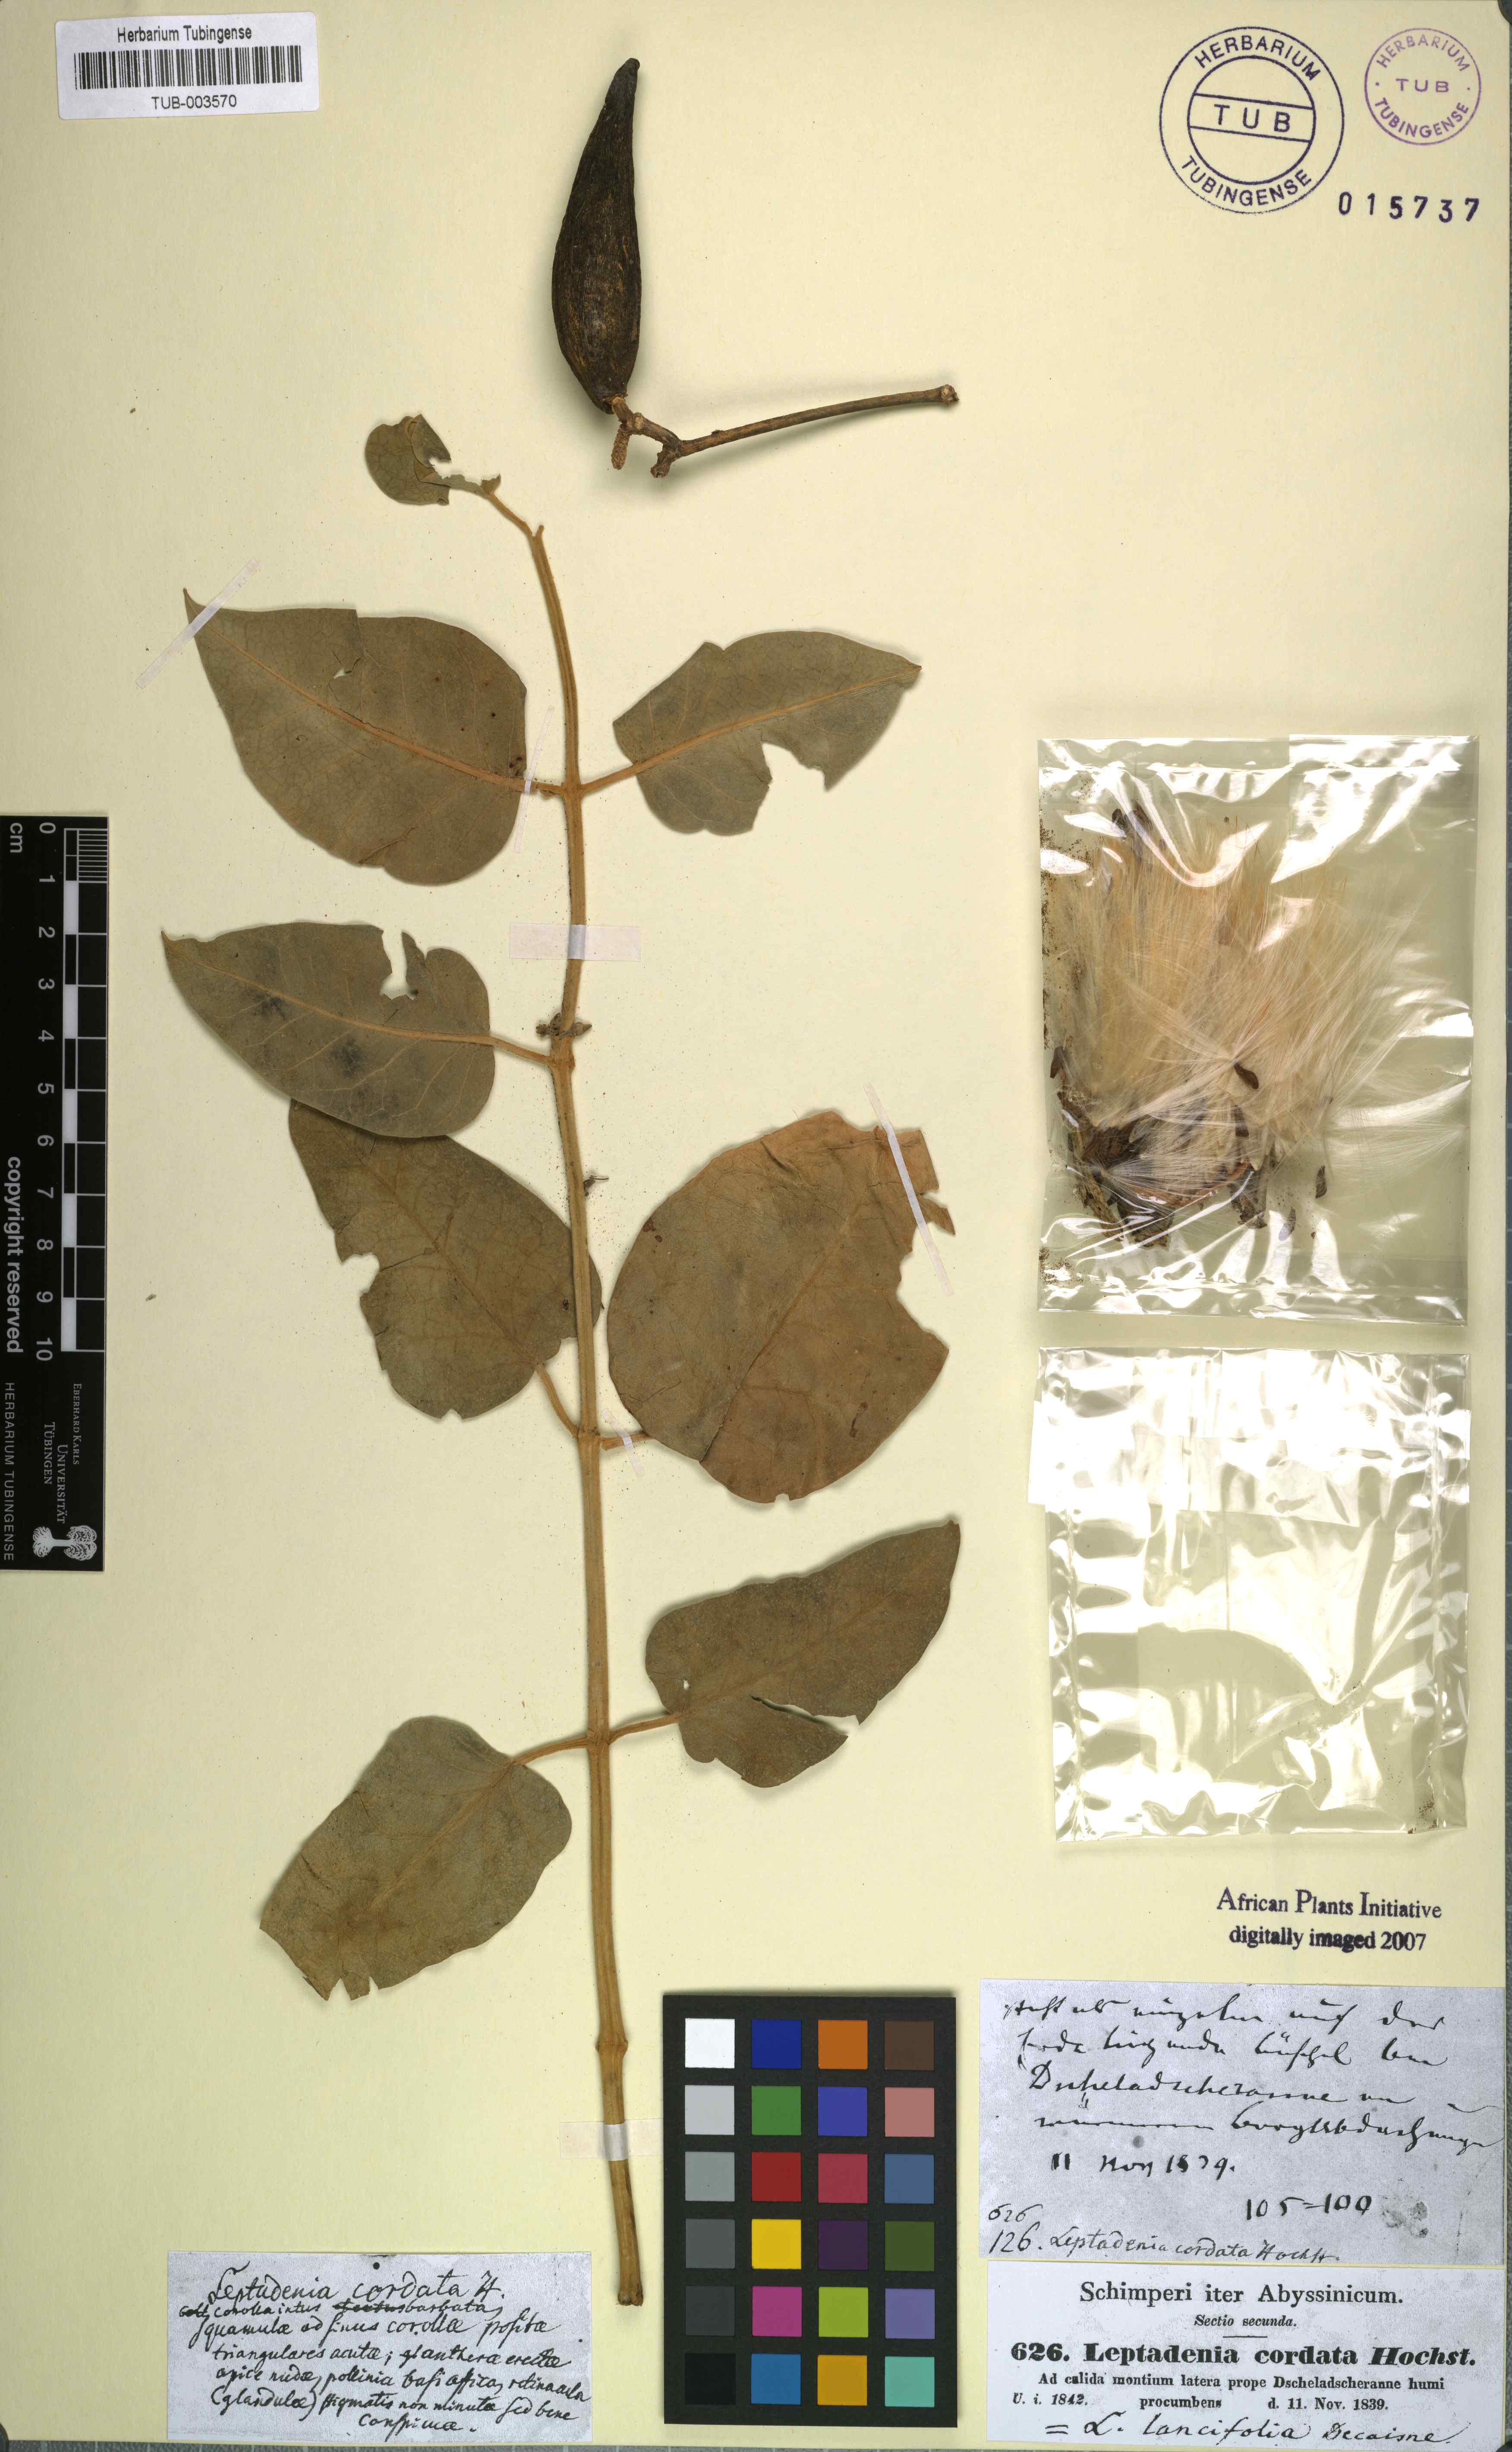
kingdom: Plantae
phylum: Tracheophyta
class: Magnoliopsida
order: Gentianales
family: Apocynaceae
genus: Leptadenia
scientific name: Leptadenia lanceolata
